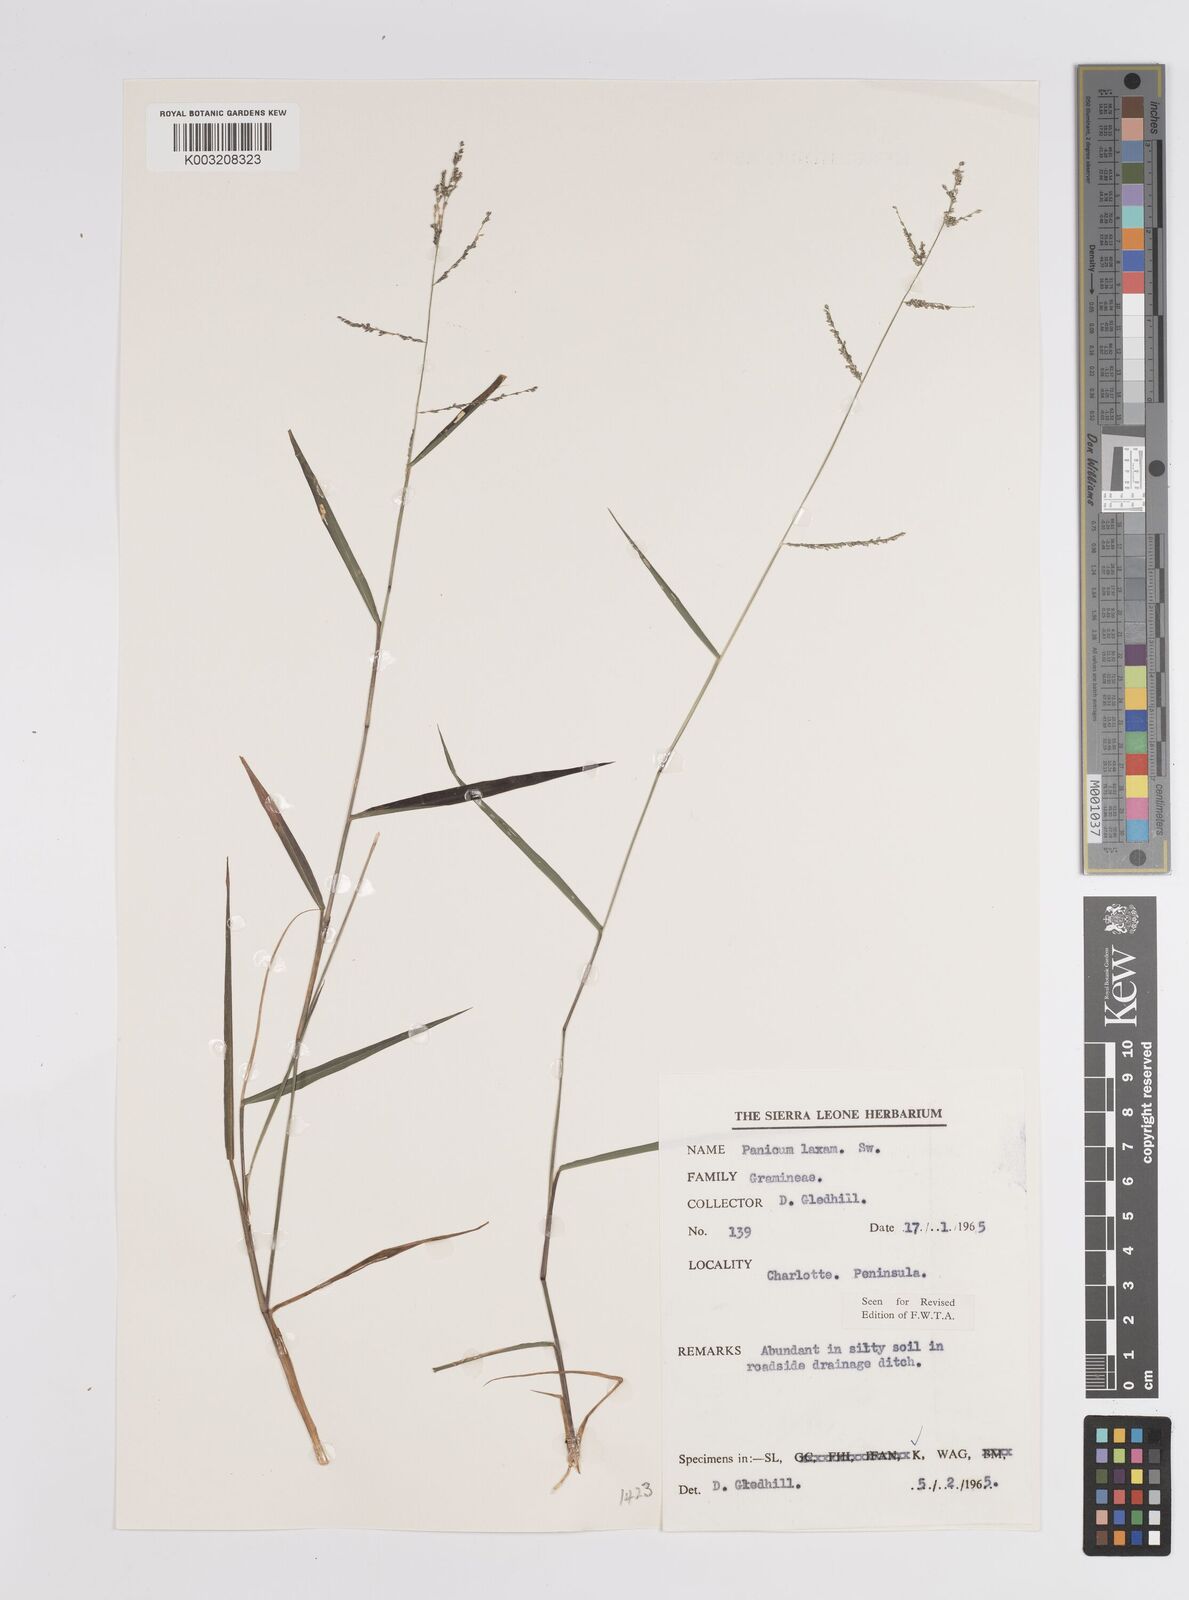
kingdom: Plantae
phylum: Tracheophyta
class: Liliopsida
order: Poales
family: Poaceae
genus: Steinchisma
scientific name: Steinchisma laxum
